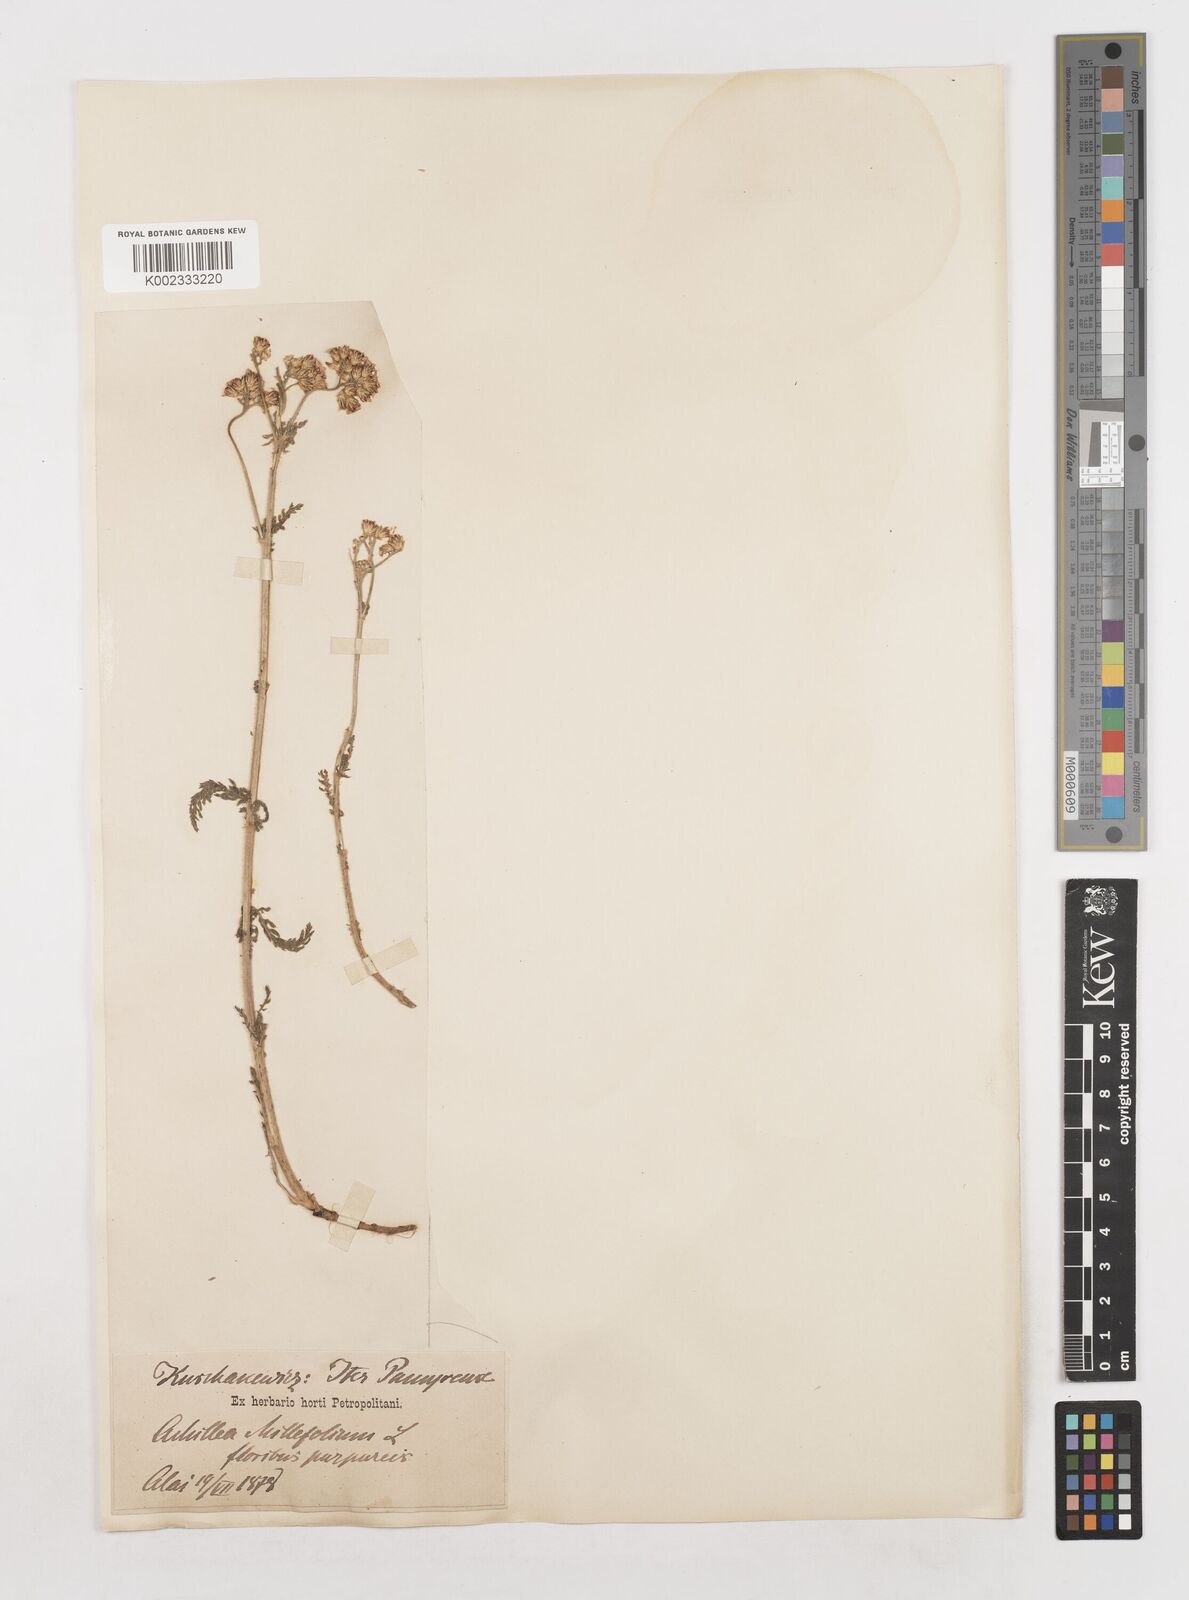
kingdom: Plantae
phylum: Tracheophyta
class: Magnoliopsida
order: Asterales
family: Asteraceae
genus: Achillea
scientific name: Achillea millefolium
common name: Yarrow
